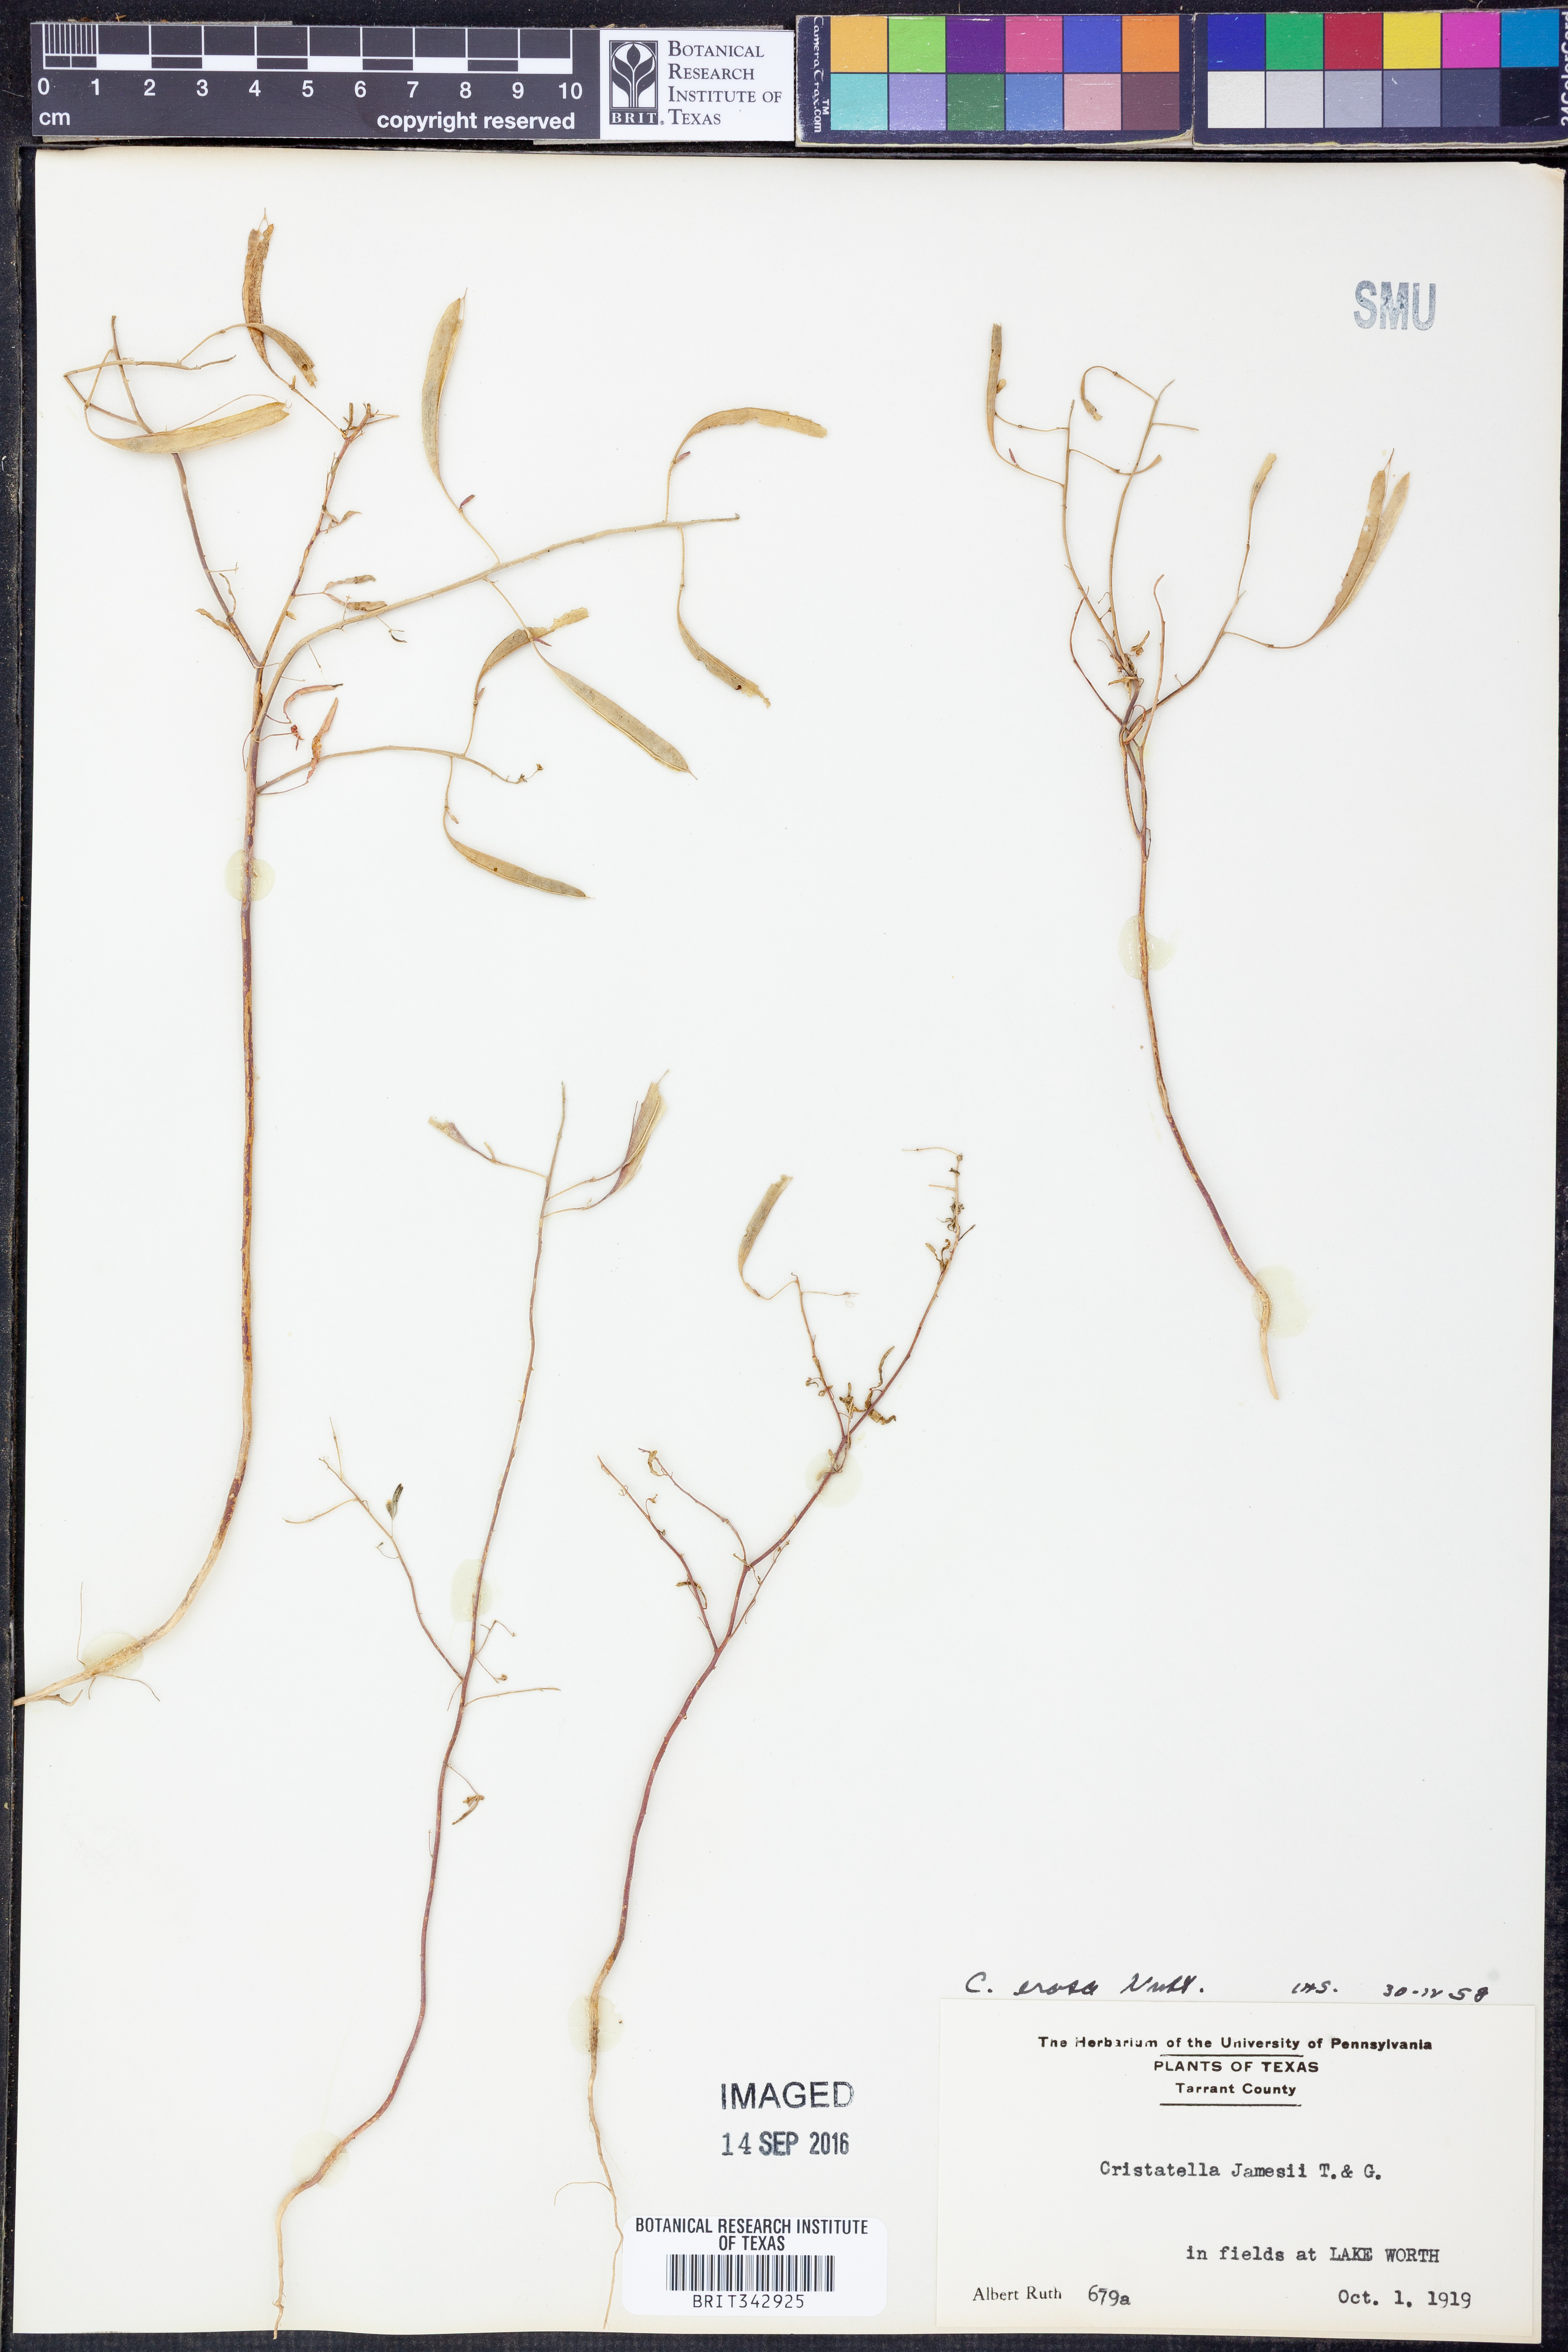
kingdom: Plantae
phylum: Tracheophyta
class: Magnoliopsida
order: Brassicales
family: Cleomaceae
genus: Polanisia
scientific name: Polanisia erosa
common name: Large clammyweed
